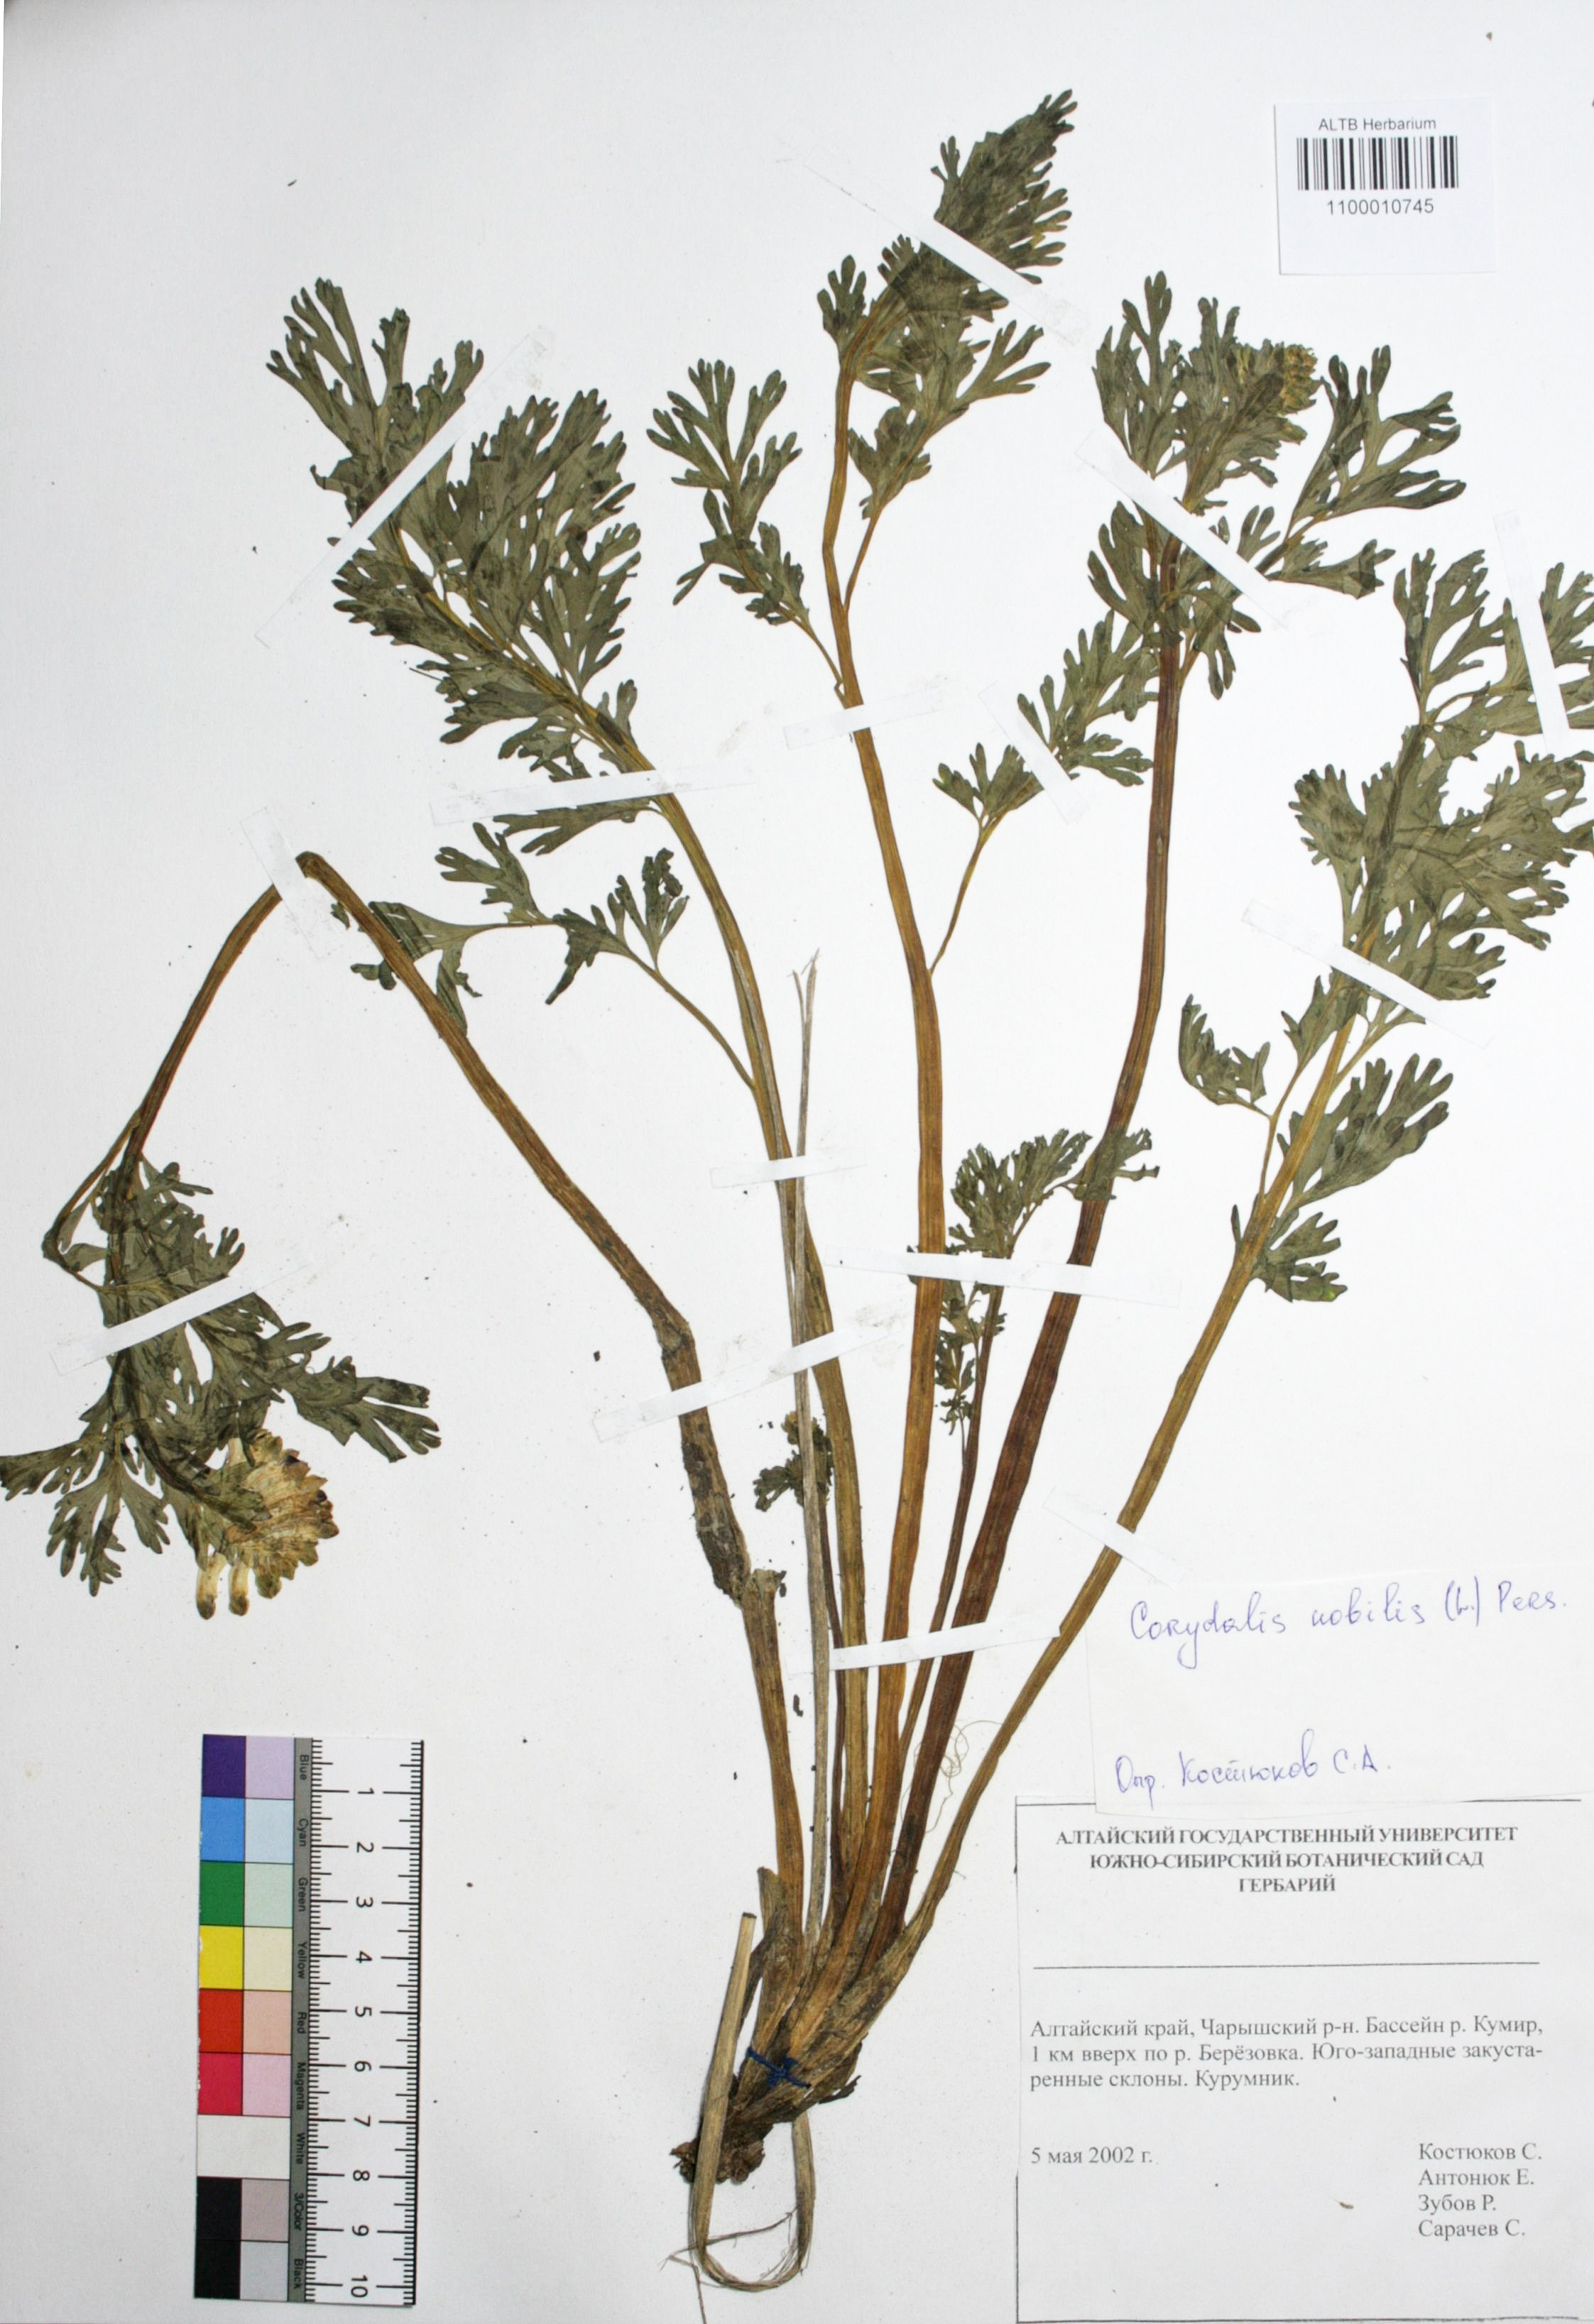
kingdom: Plantae
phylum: Tracheophyta
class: Magnoliopsida
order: Ranunculales
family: Papaveraceae
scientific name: Papaveraceae
